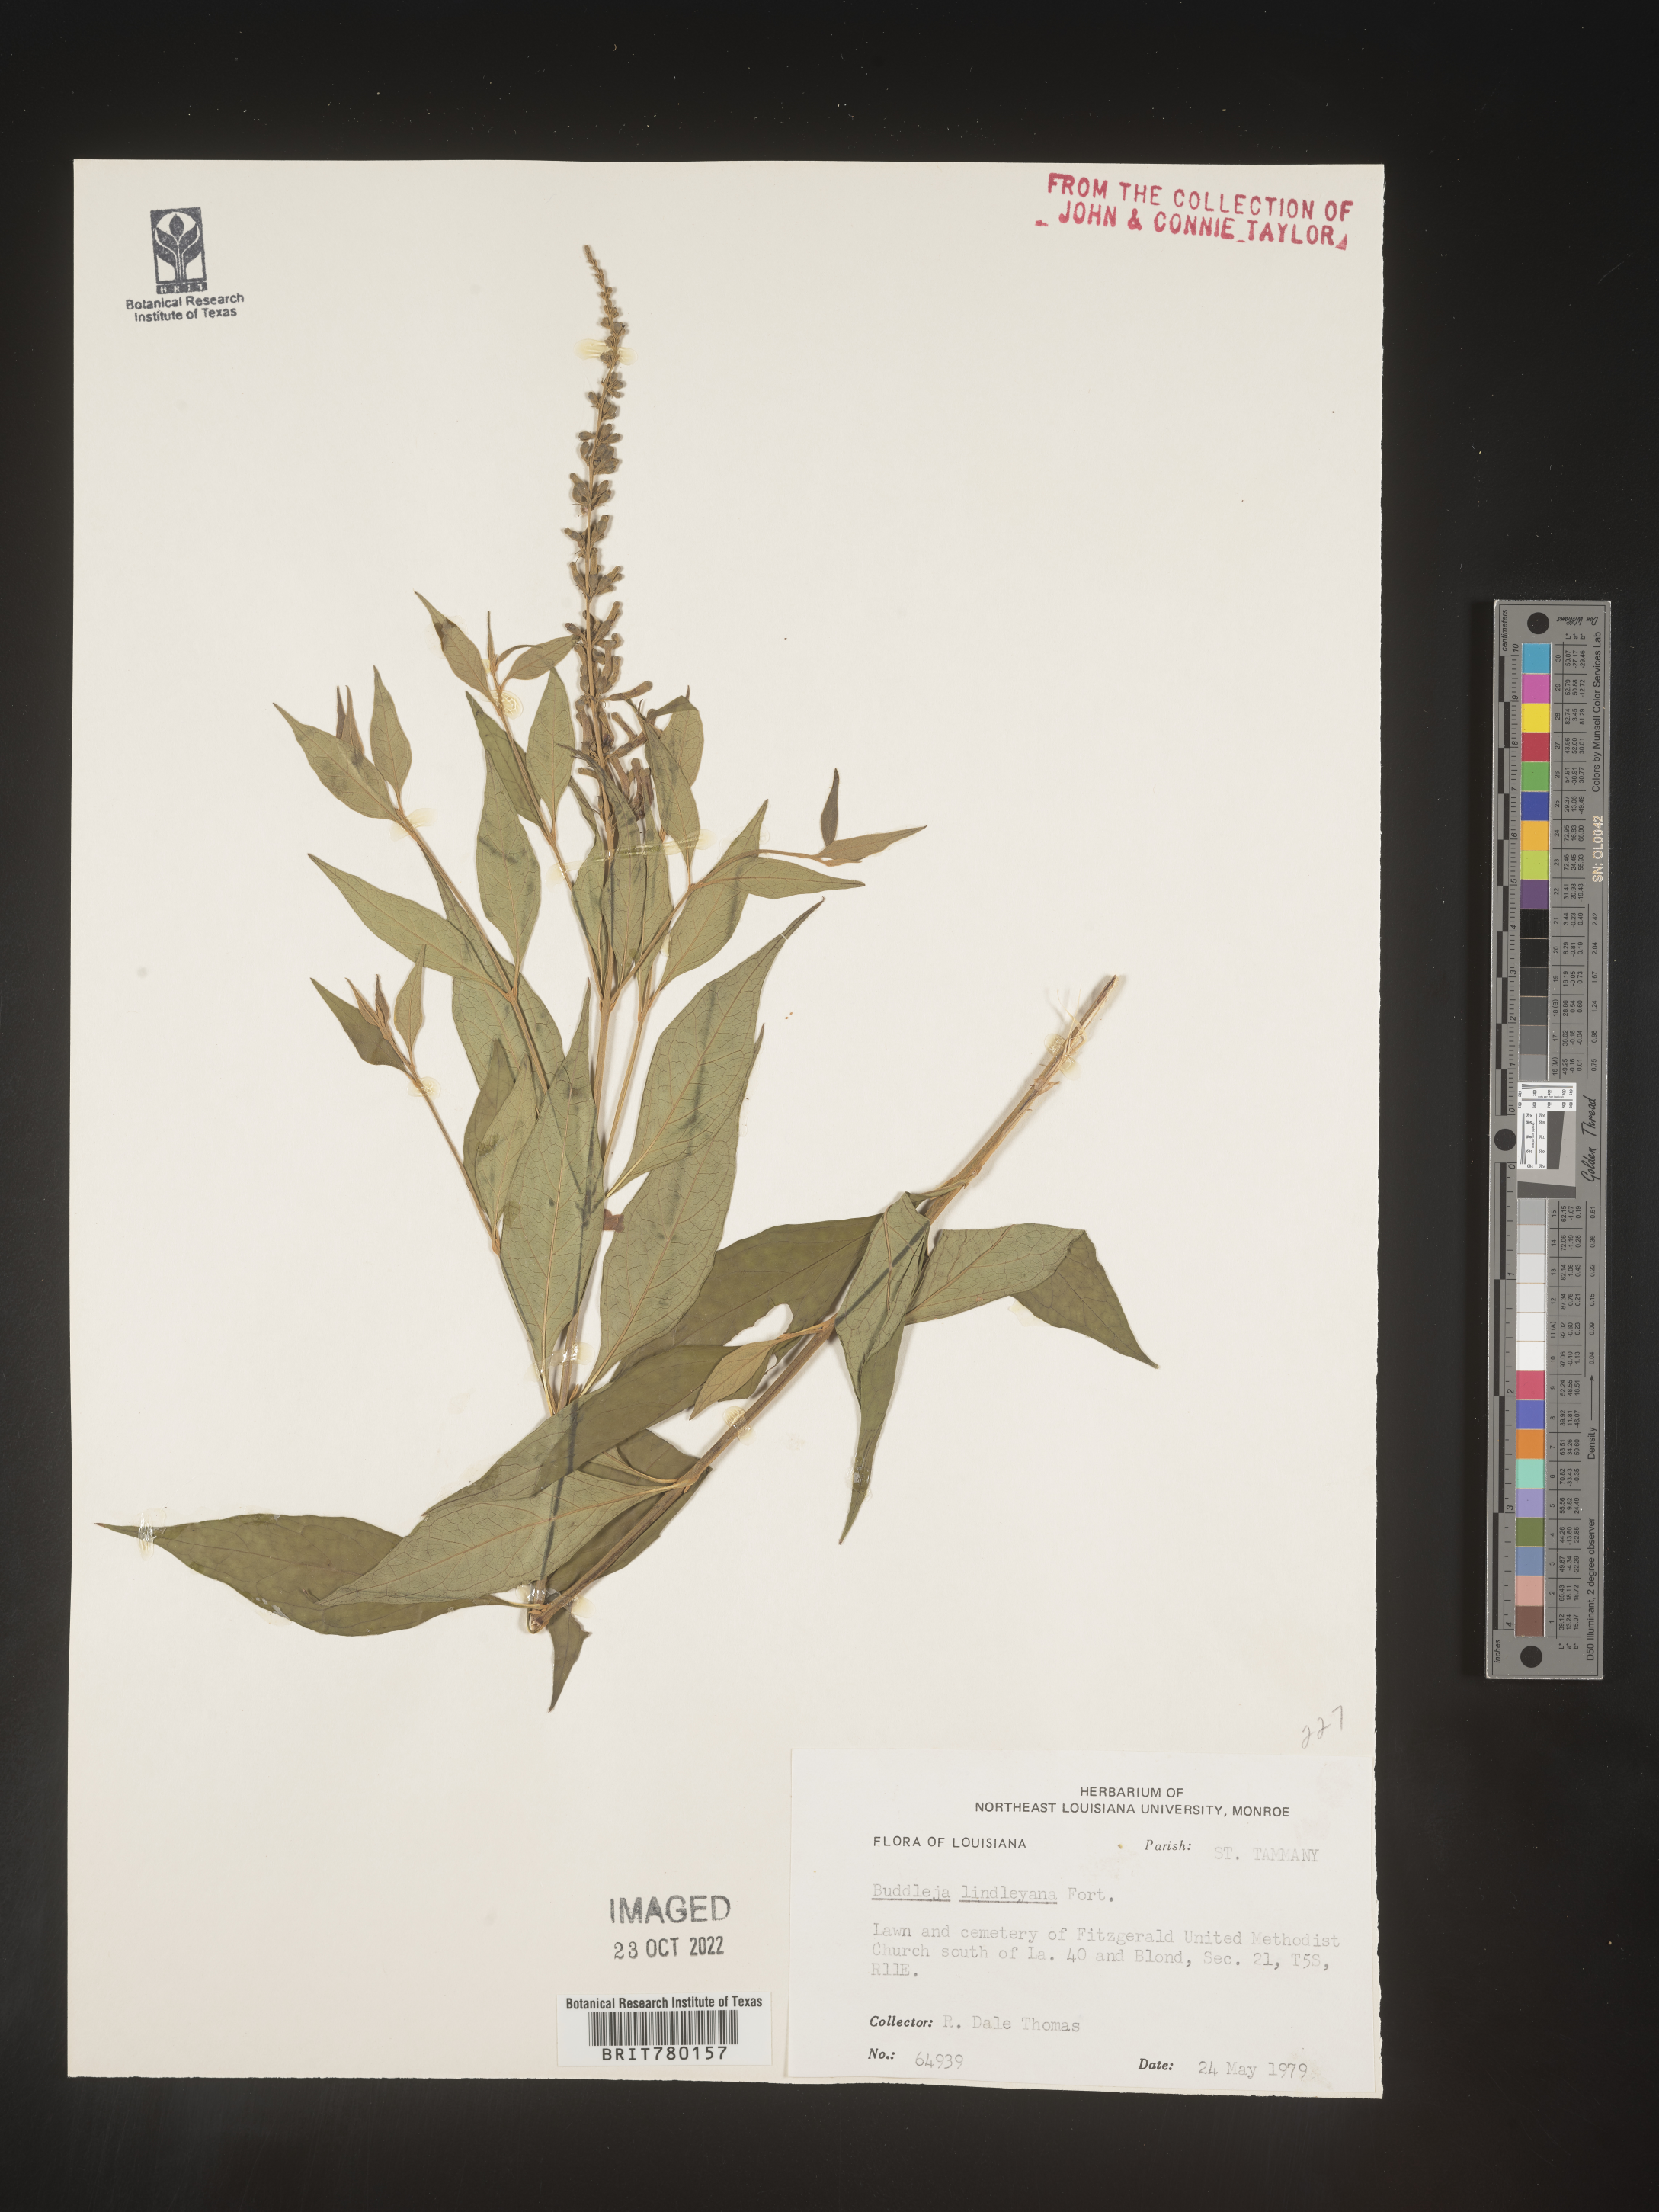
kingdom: Plantae
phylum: Tracheophyta
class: Magnoliopsida
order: Lamiales
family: Scrophulariaceae
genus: Buddleja
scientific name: Buddleja
